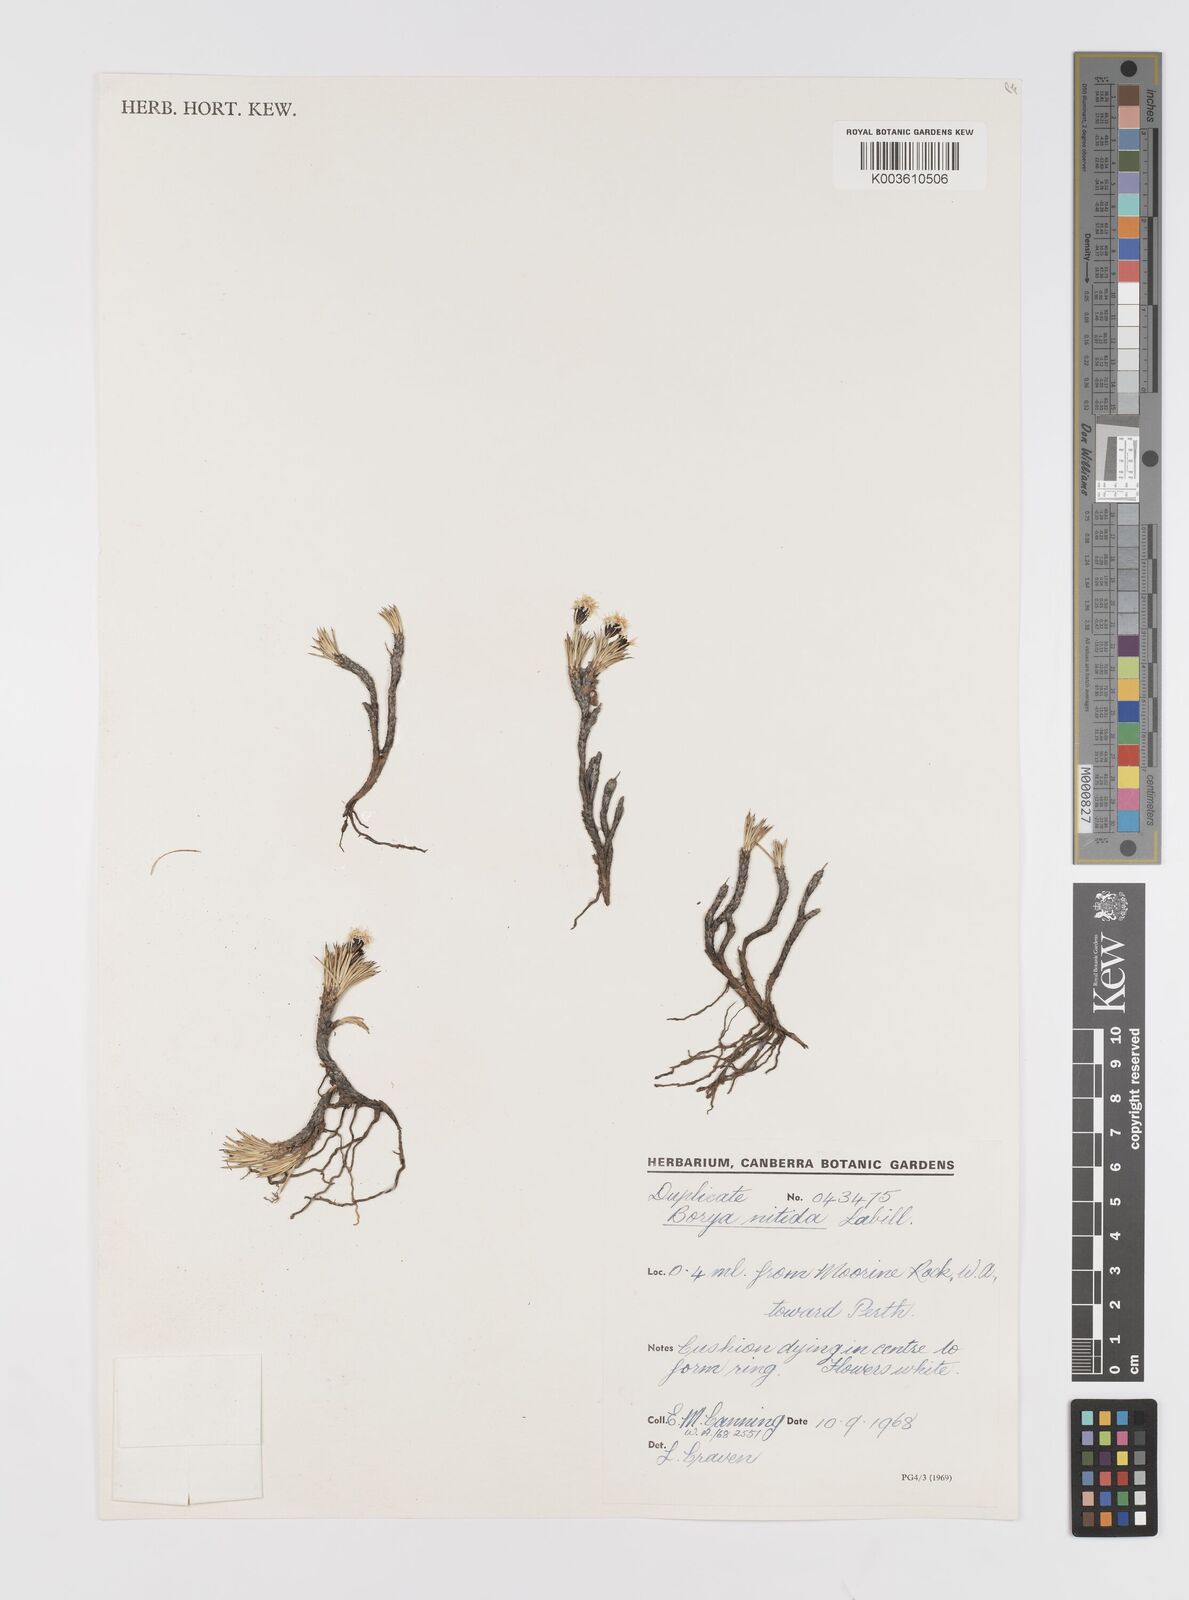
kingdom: Plantae
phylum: Tracheophyta
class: Liliopsida
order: Asparagales
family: Boryaceae
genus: Borya
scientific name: Borya nitida
